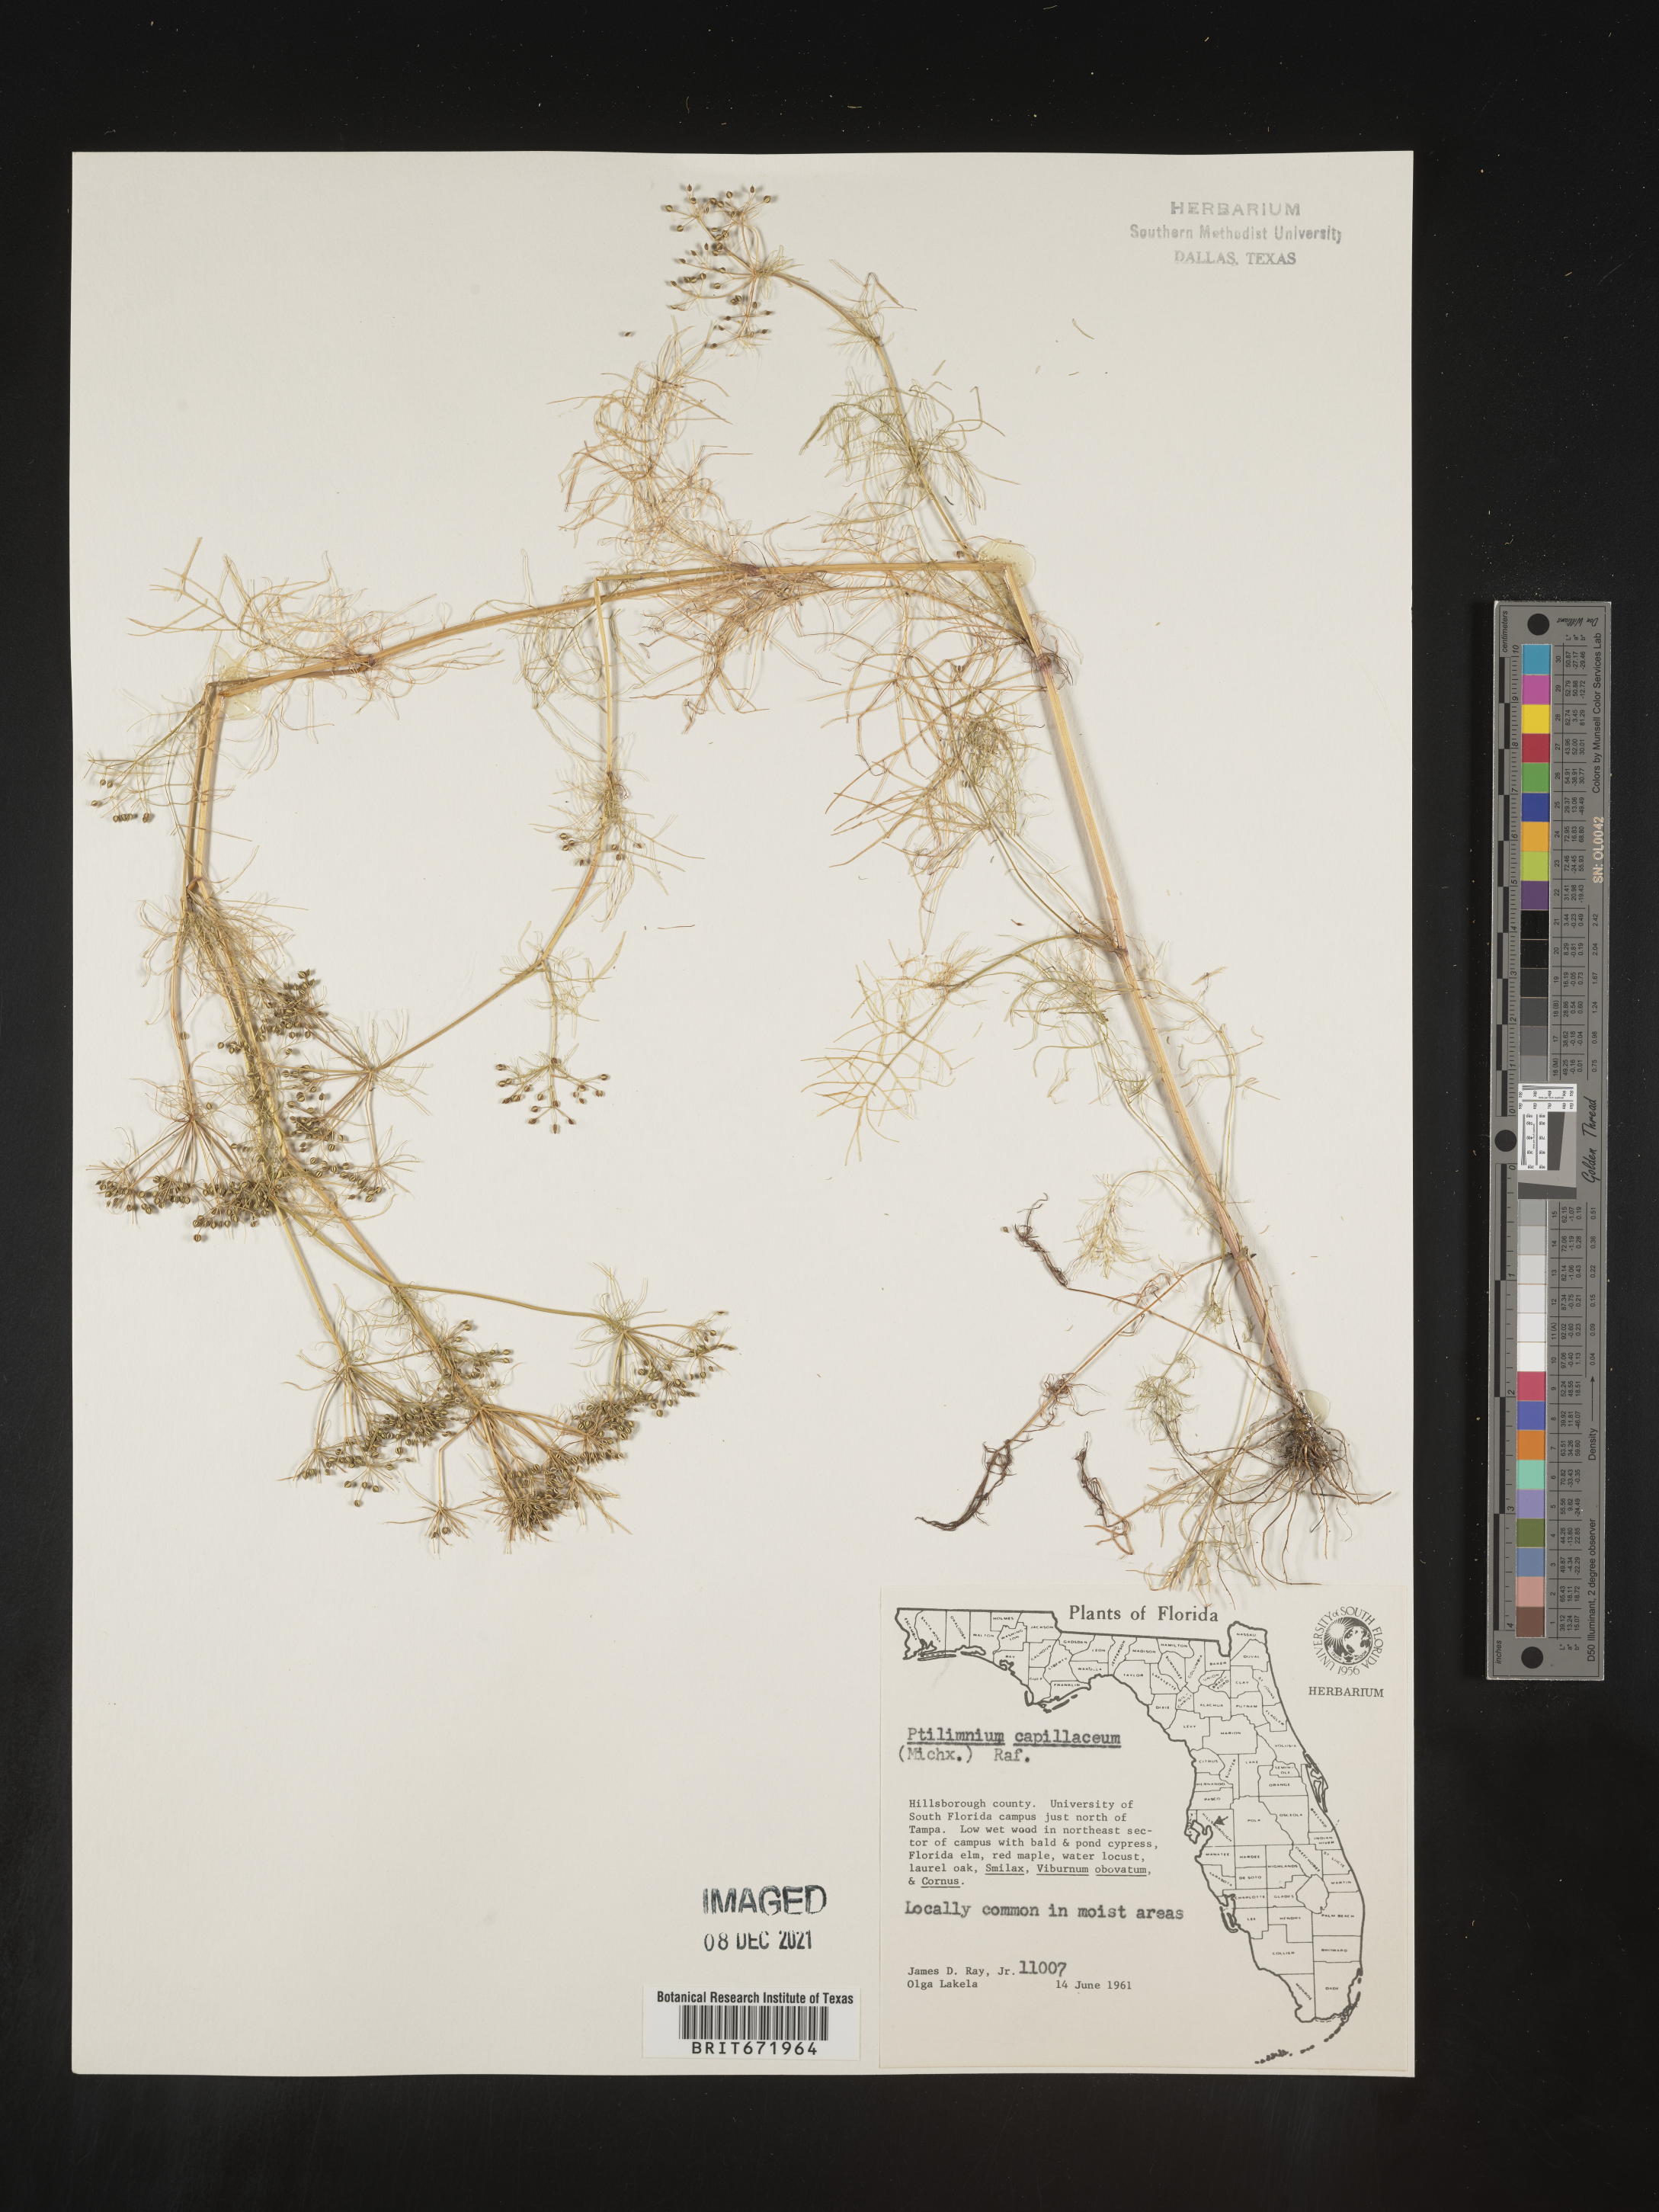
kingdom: Plantae
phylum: Tracheophyta
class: Magnoliopsida
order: Apiales
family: Apiaceae
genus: Ptilimnium
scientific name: Ptilimnium capillaceum
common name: Herbwilliam
